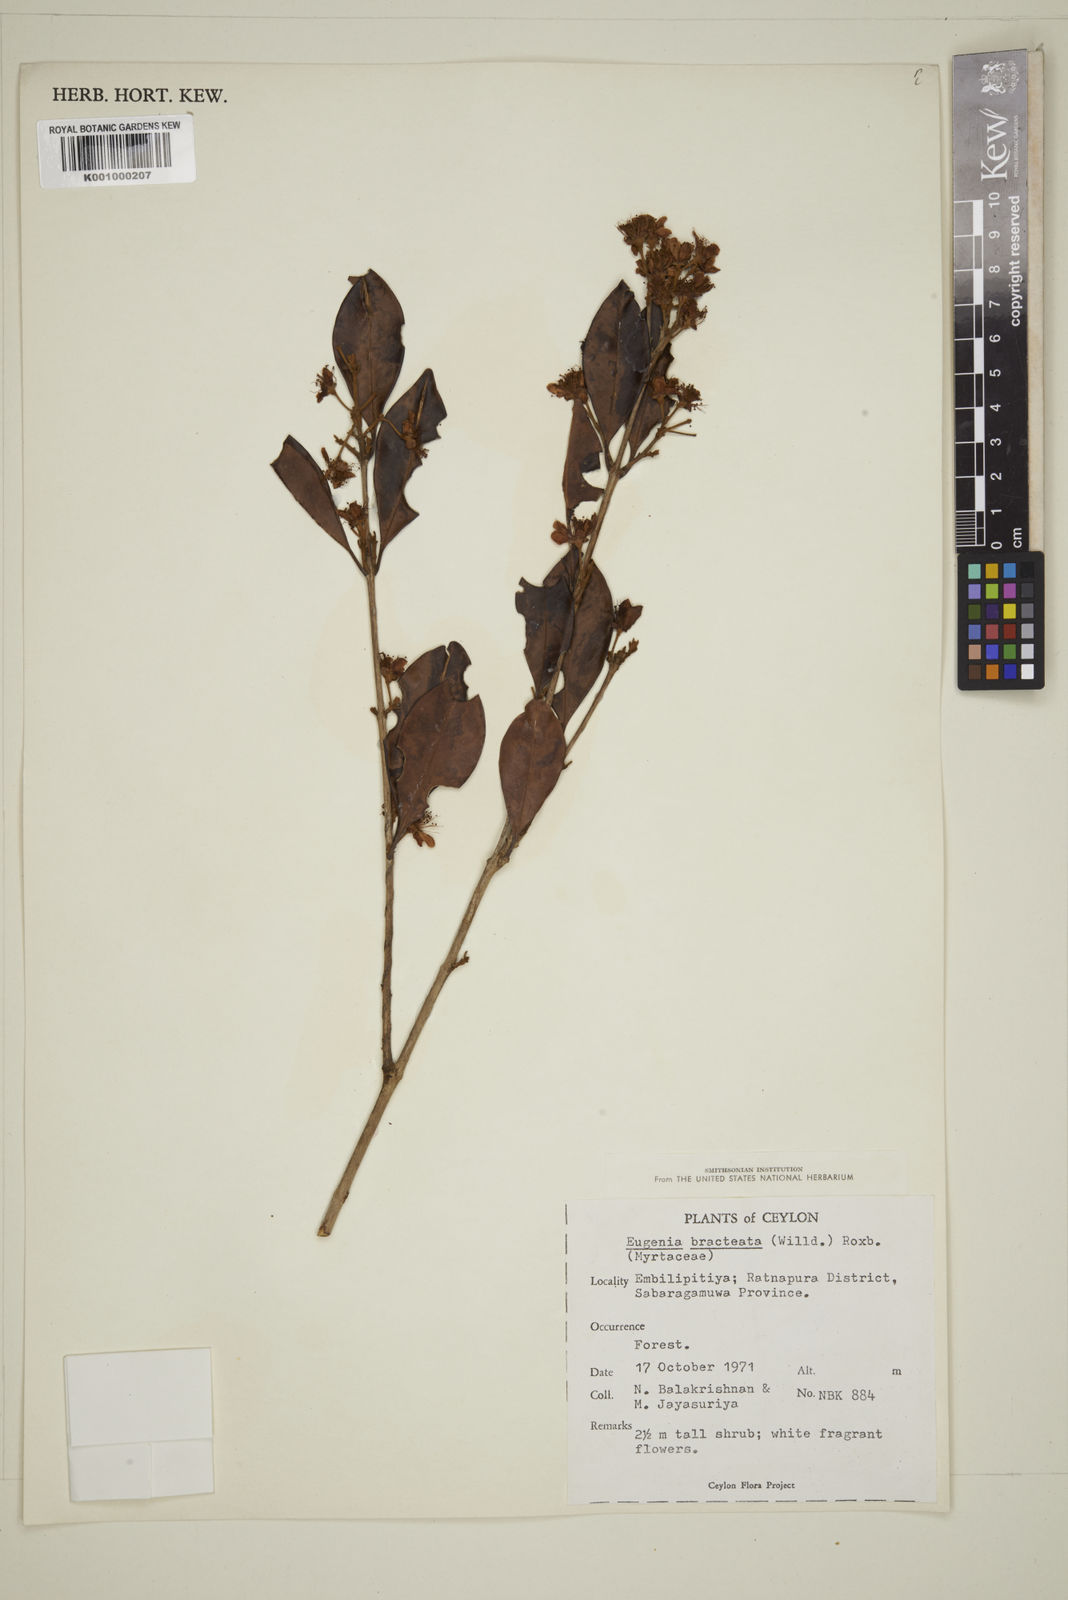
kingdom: Plantae
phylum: Tracheophyta
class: Magnoliopsida
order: Myrtales
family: Myrtaceae
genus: Eugenia
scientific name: Eugenia pseudopsidium
